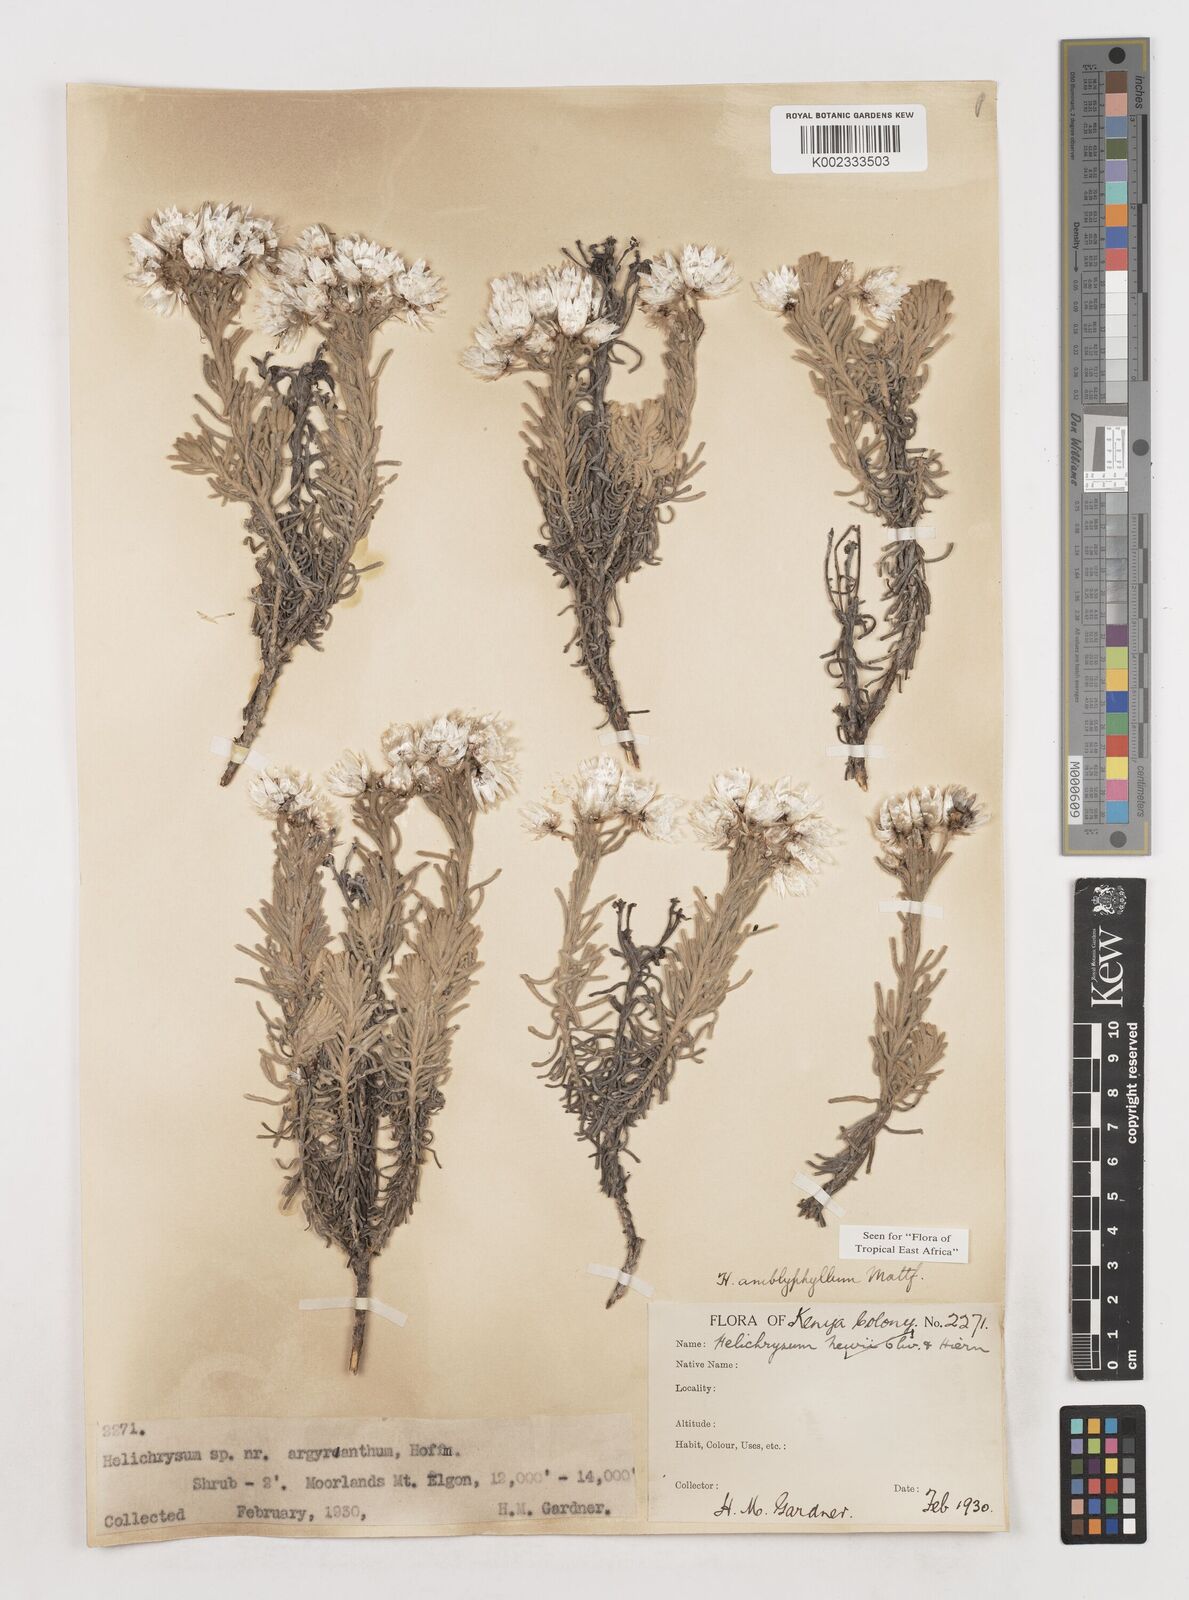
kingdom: Plantae
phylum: Tracheophyta
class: Magnoliopsida
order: Asterales
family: Asteraceae
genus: Helichrysum
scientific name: Helichrysum amblyphyllum
